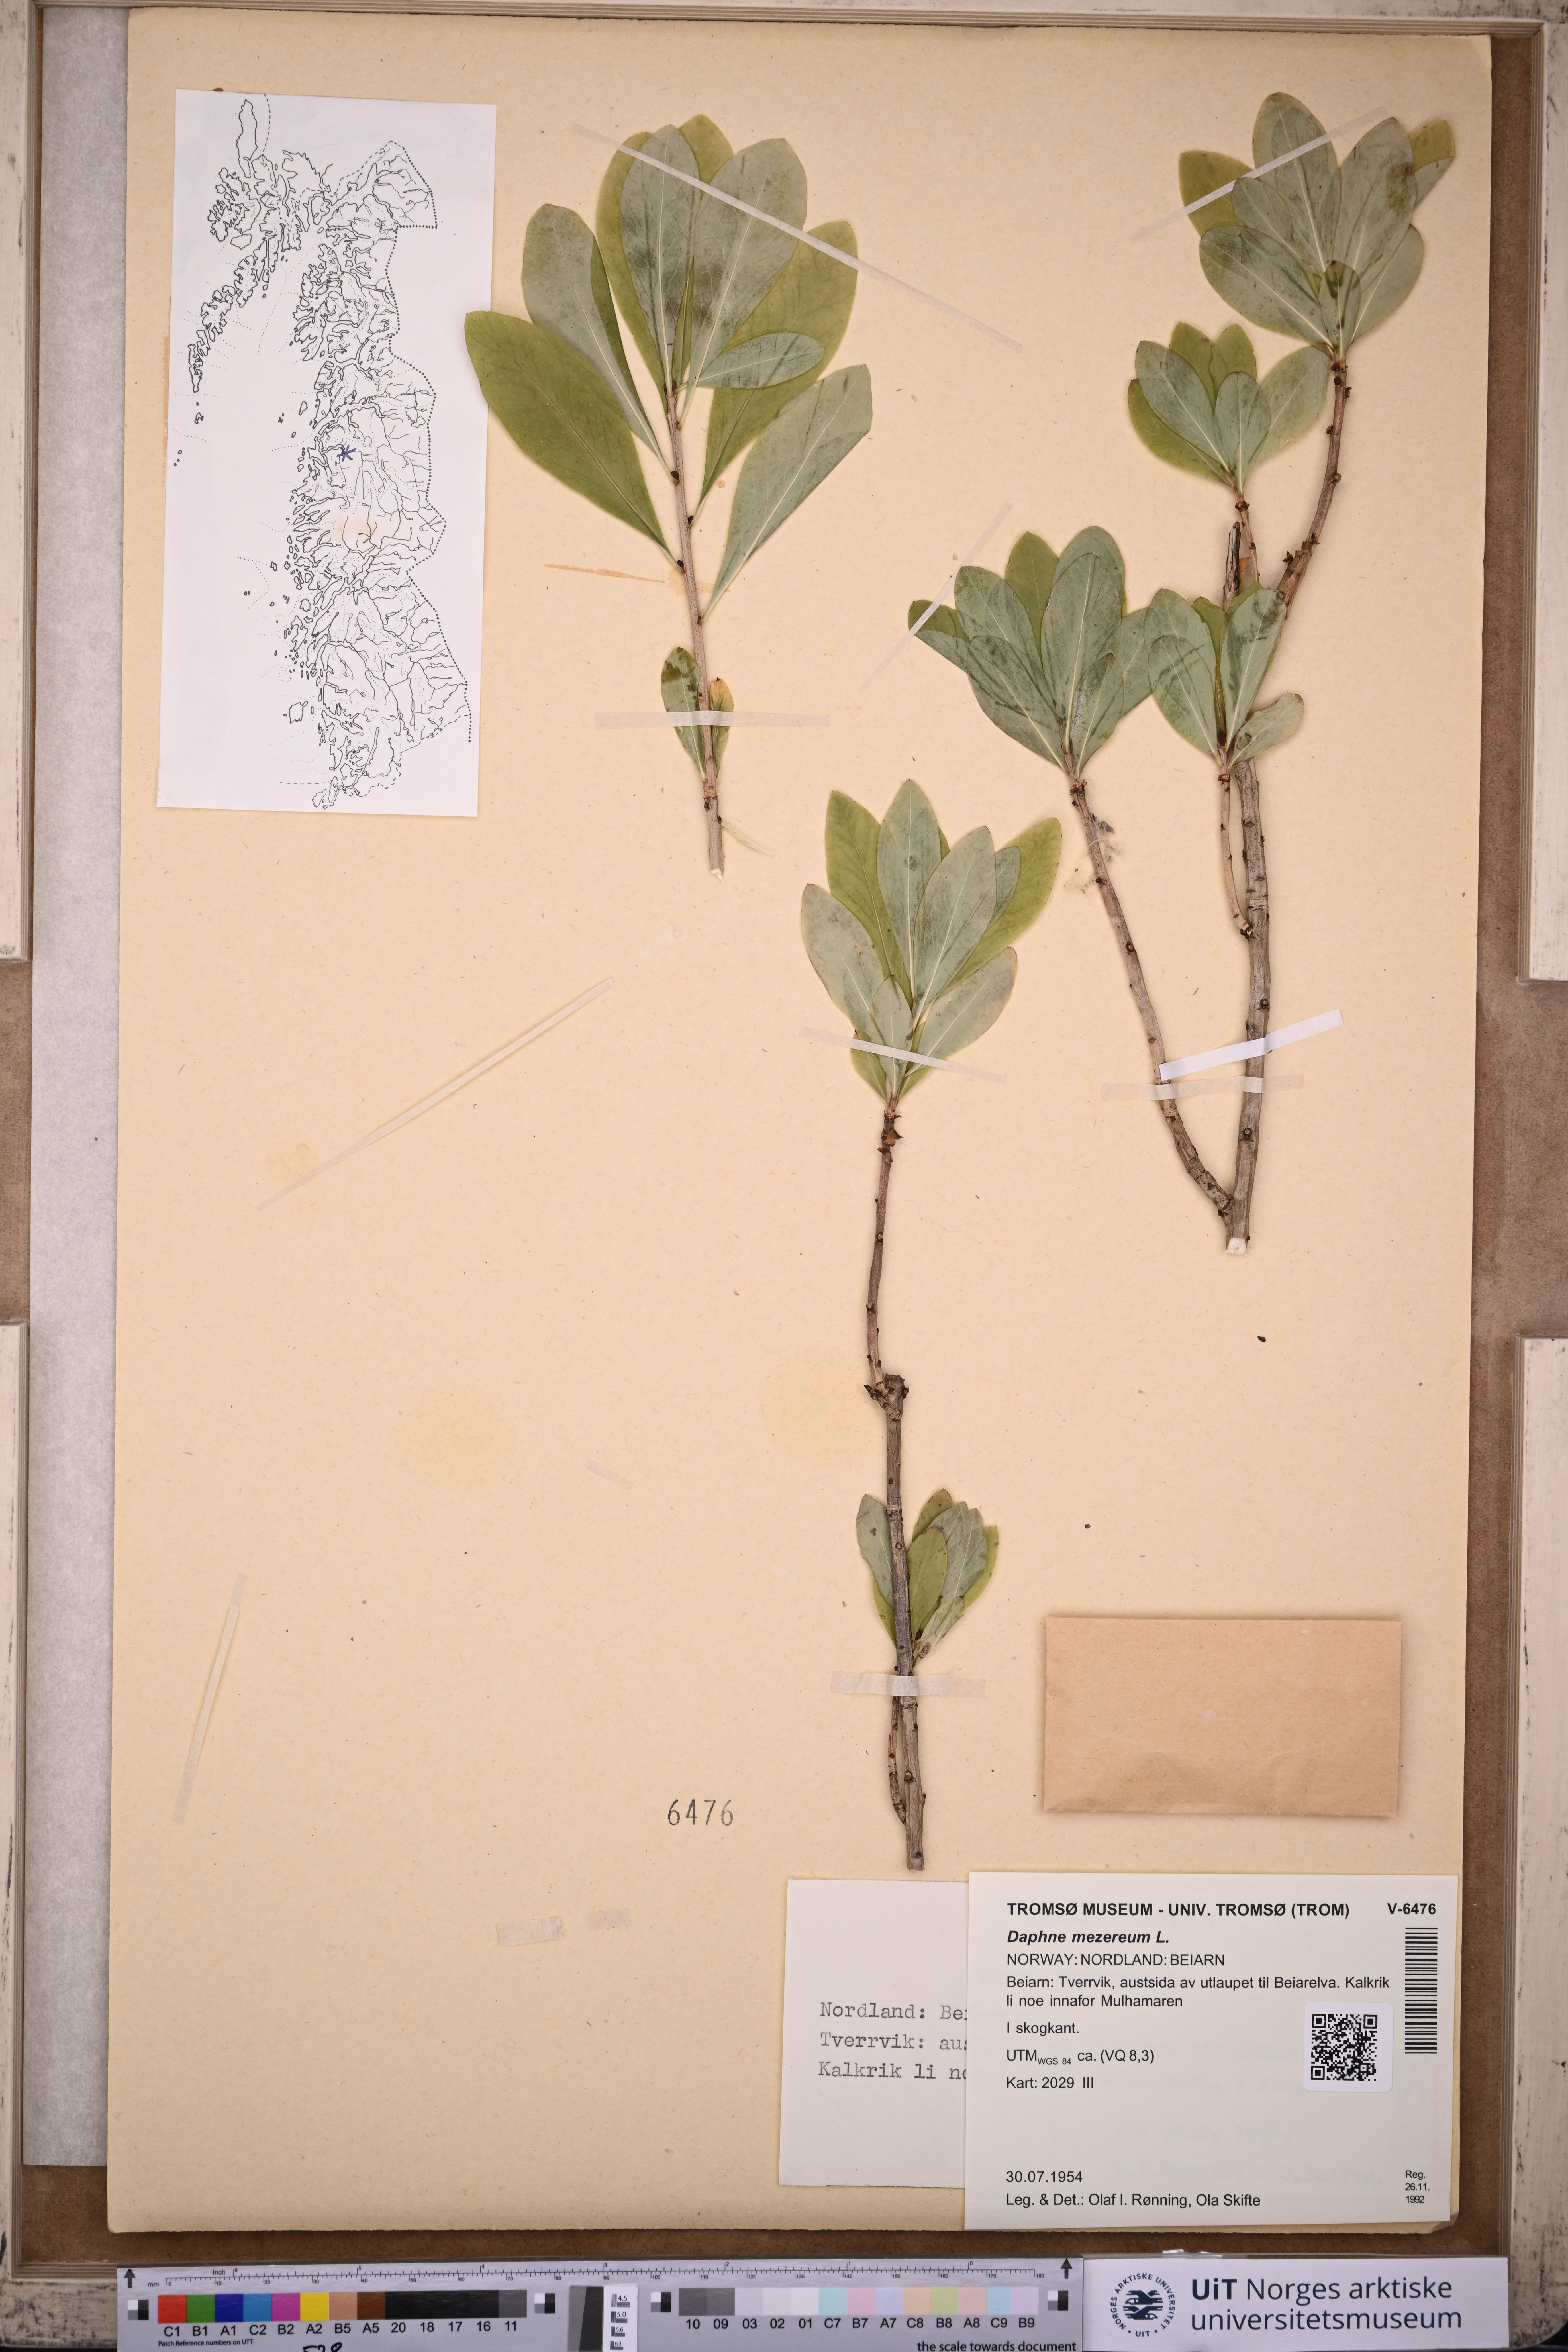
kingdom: Plantae
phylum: Tracheophyta
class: Magnoliopsida
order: Malvales
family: Thymelaeaceae
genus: Daphne
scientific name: Daphne mezereum
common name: Mezereon
